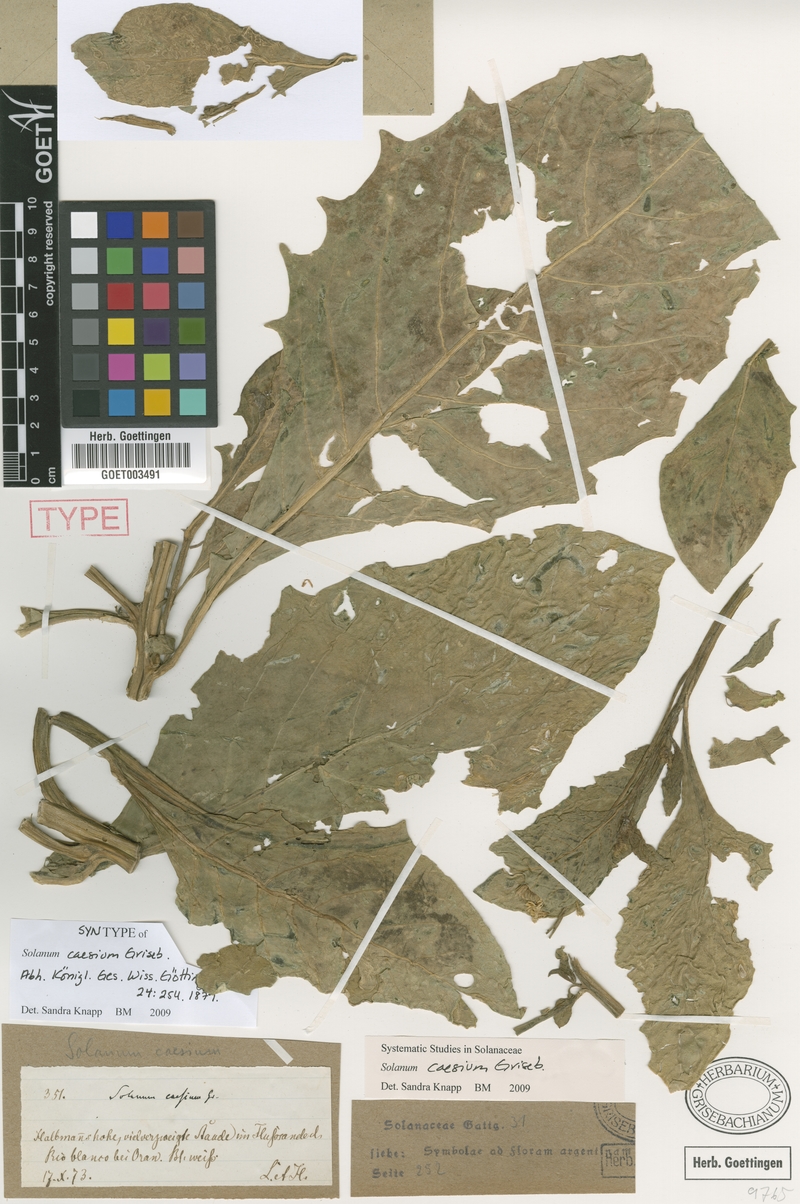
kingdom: Plantae
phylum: Tracheophyta
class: Magnoliopsida
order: Solanales
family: Solanaceae
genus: Solanum
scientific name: Solanum caesium
